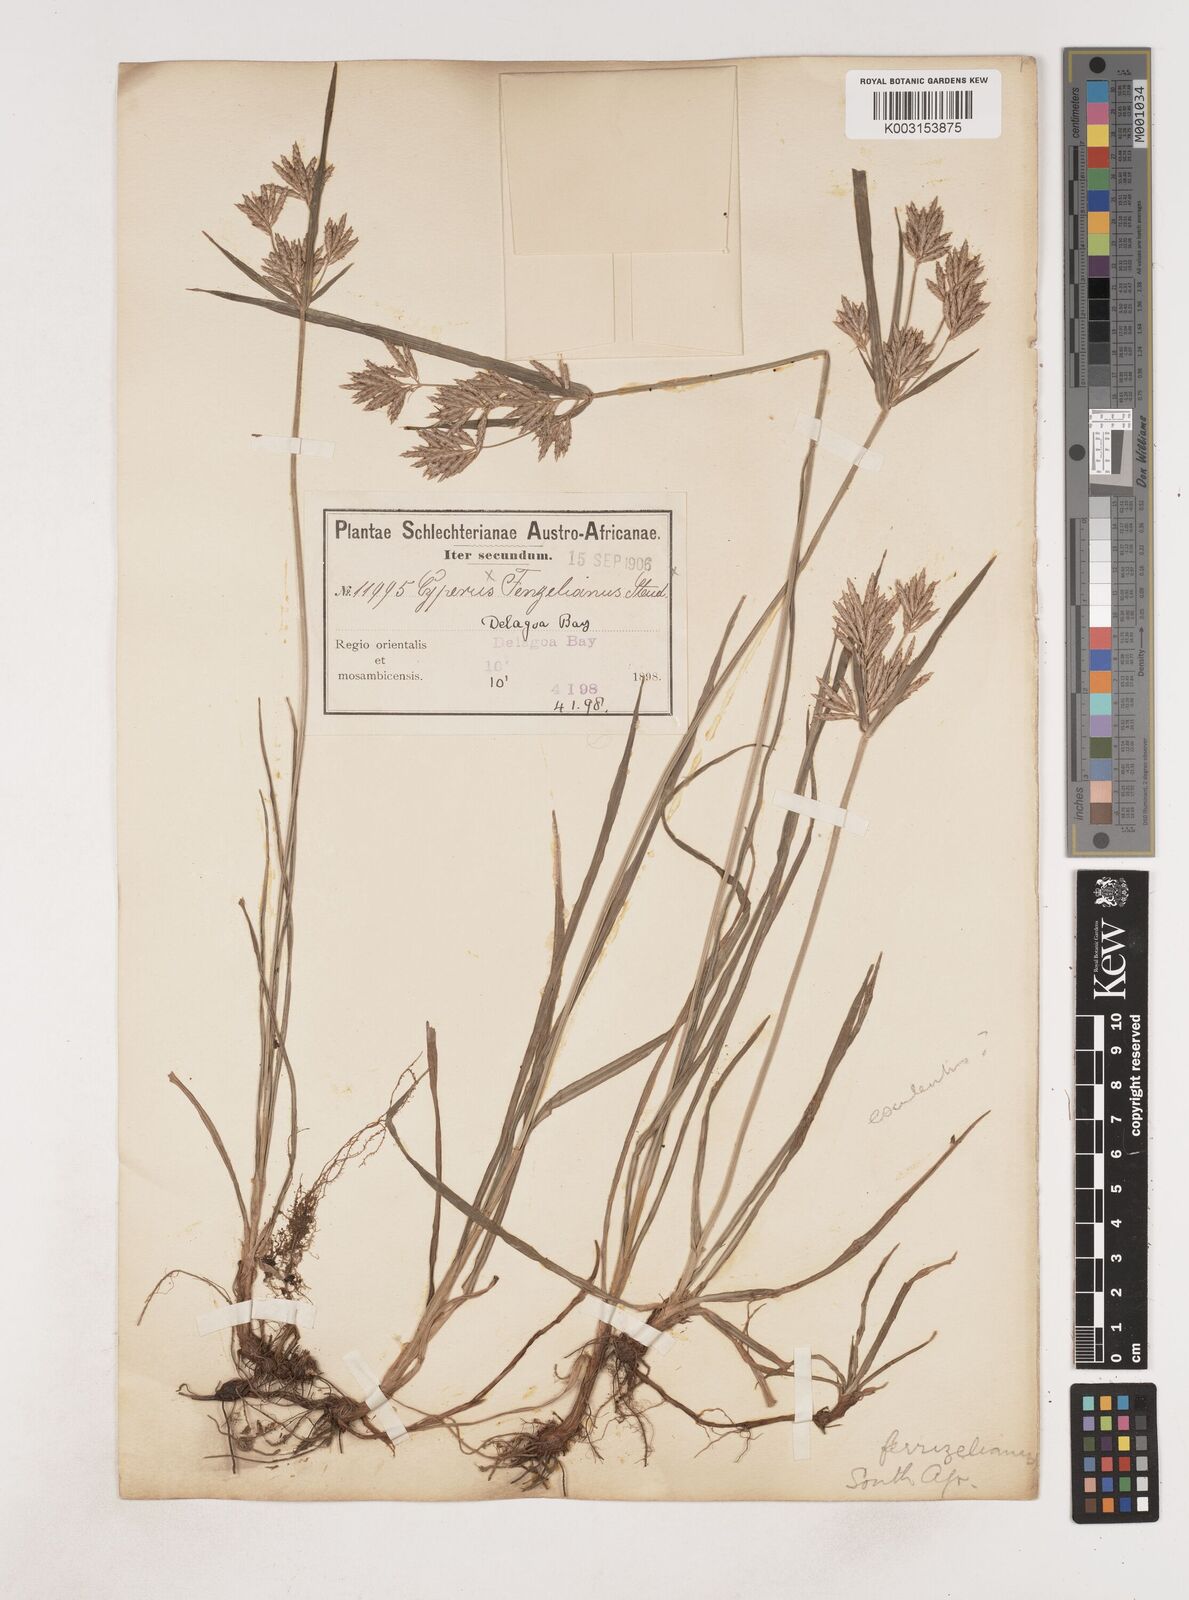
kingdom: Plantae
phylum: Tracheophyta
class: Liliopsida
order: Poales
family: Cyperaceae
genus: Cyperus
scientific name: Cyperus
